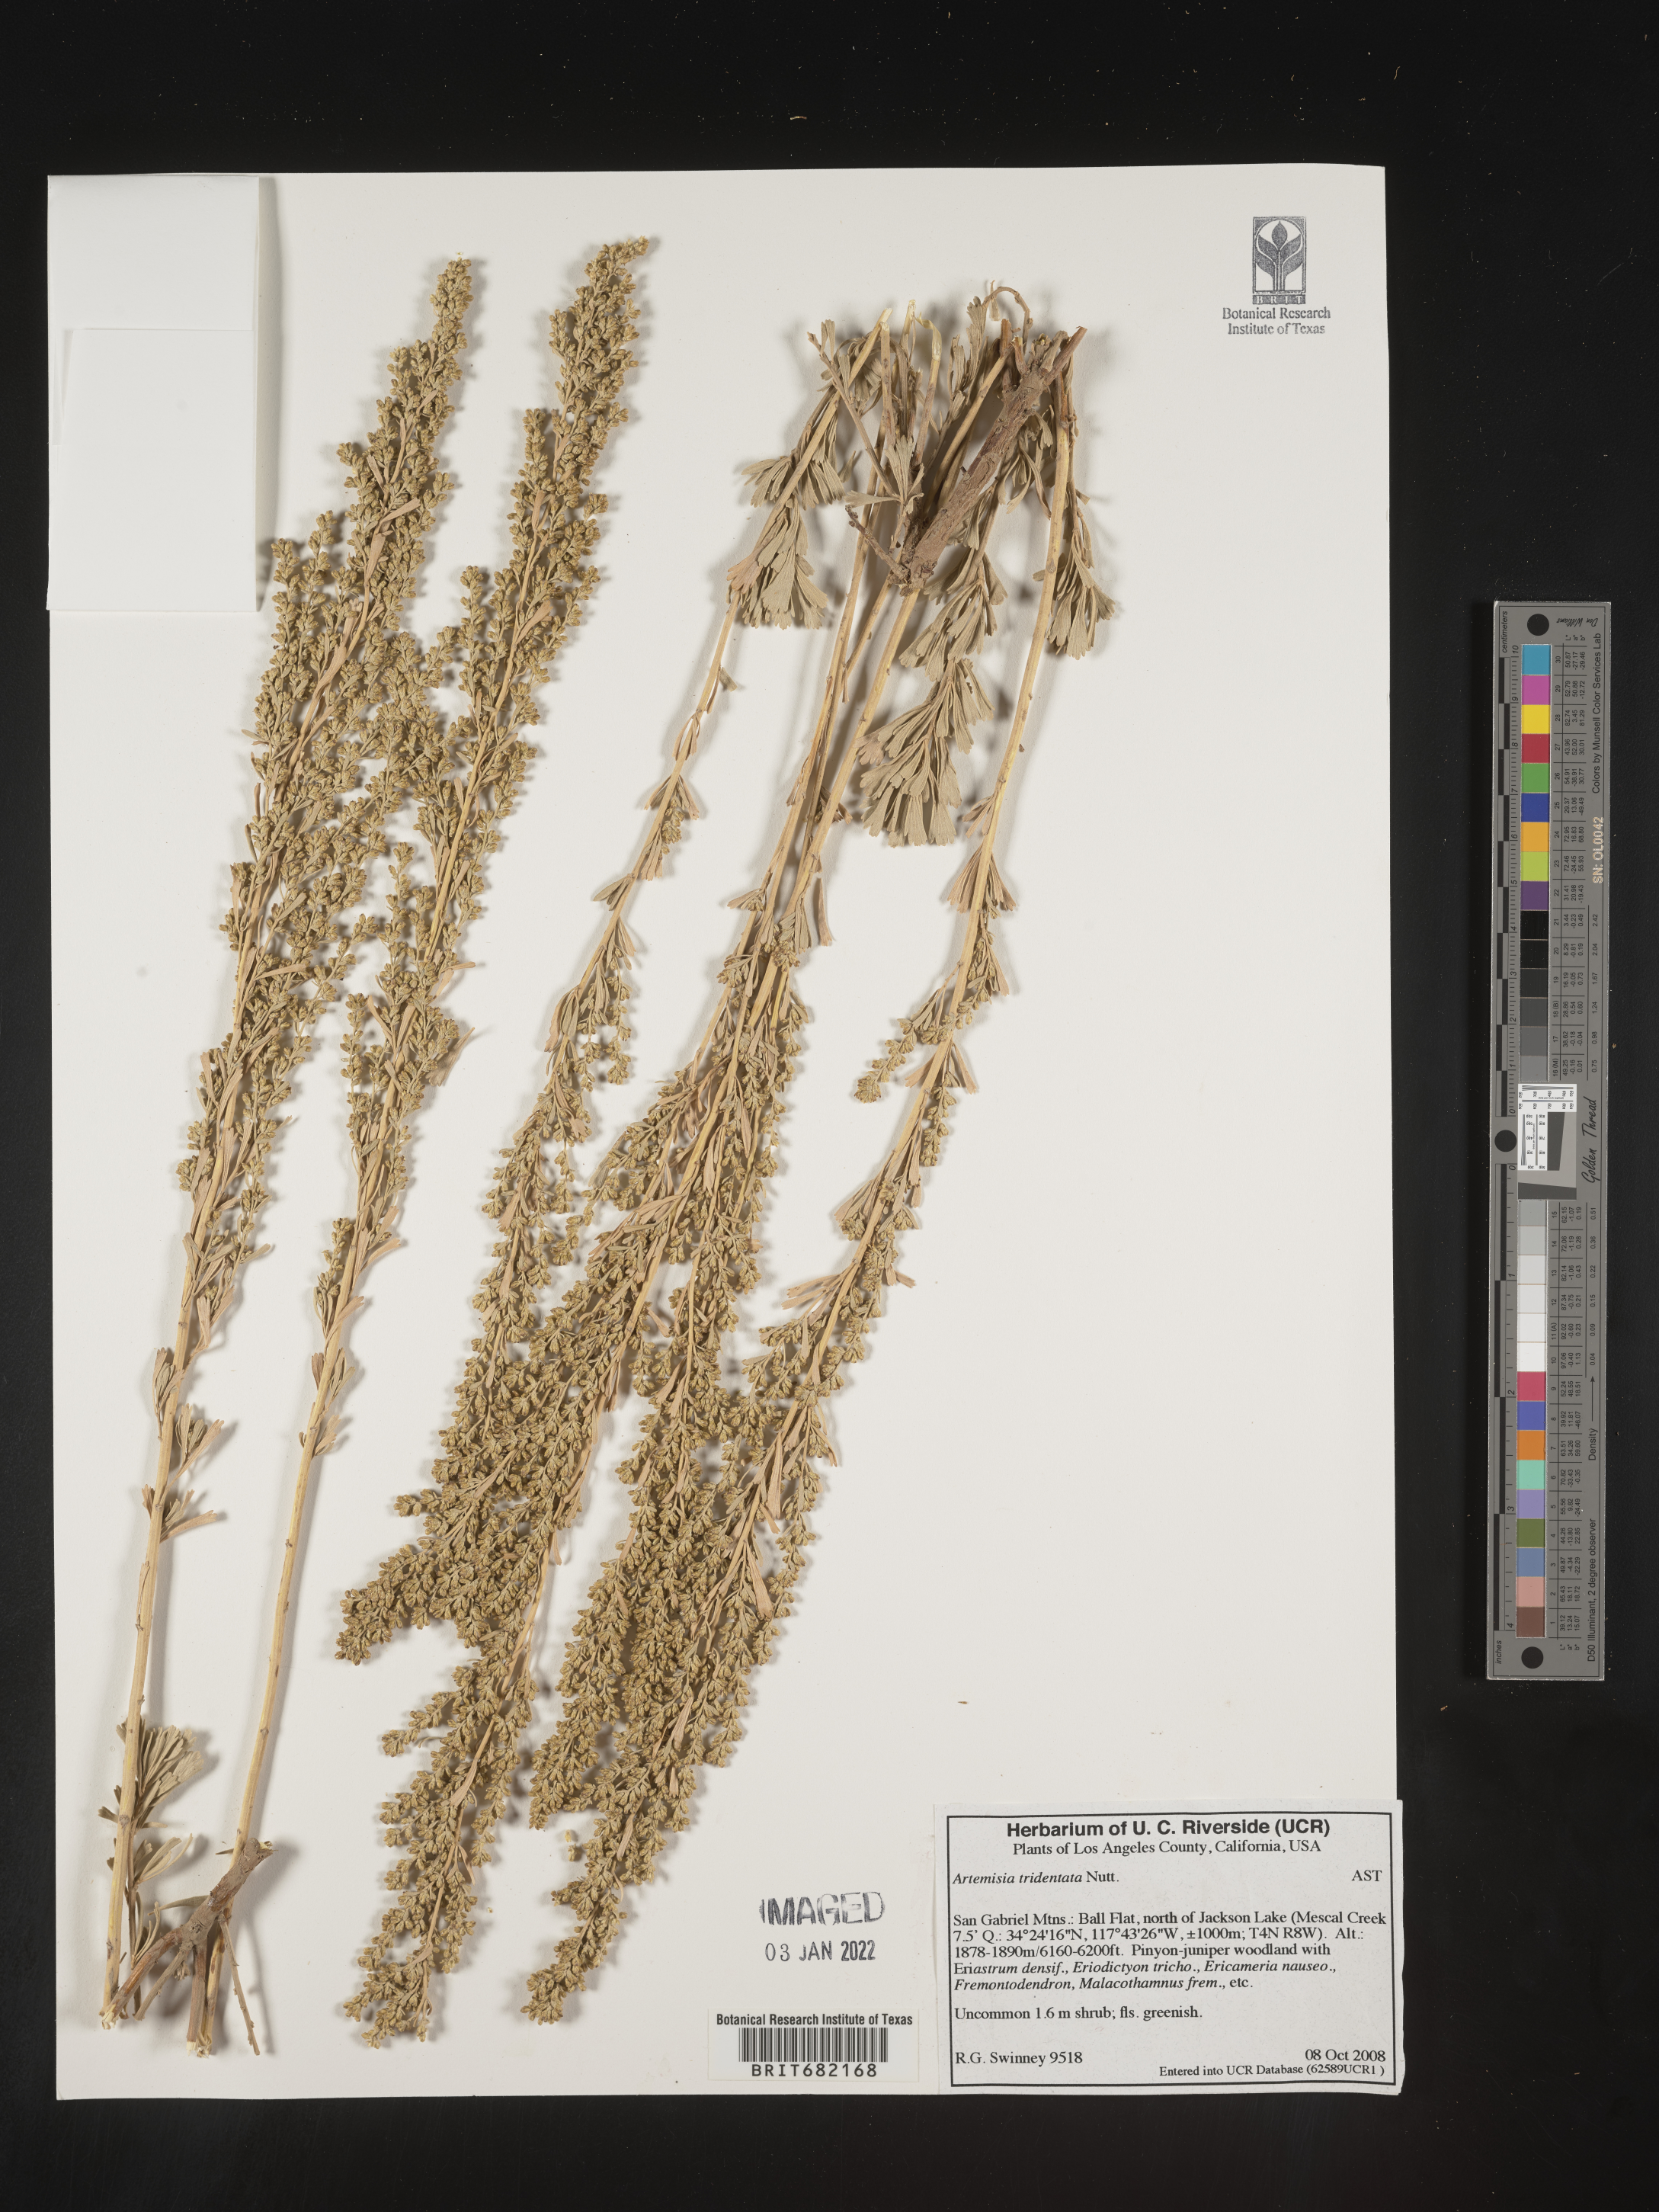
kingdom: Plantae
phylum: Tracheophyta
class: Magnoliopsida
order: Asterales
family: Asteraceae
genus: Artemisia
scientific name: Artemisia tridentata
